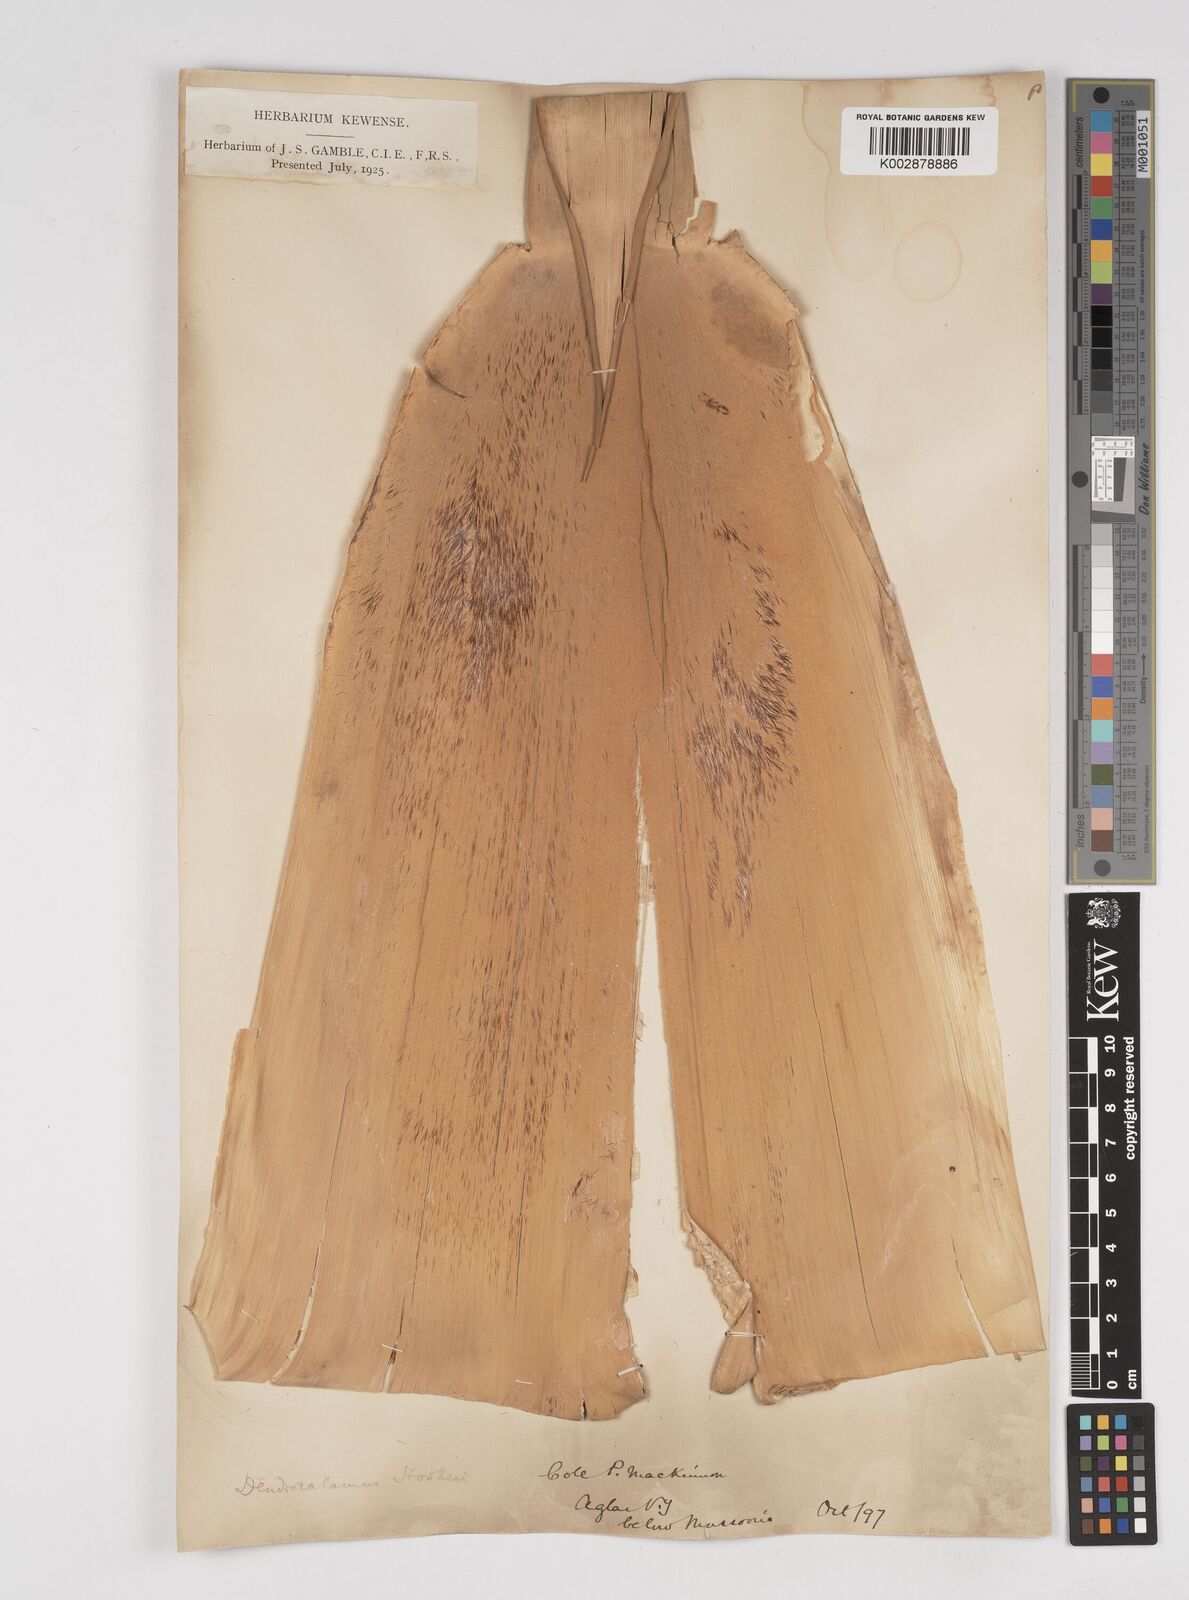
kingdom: Plantae
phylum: Tracheophyta
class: Liliopsida
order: Poales
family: Poaceae
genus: Dendrocalamus
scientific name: Dendrocalamus hookeri
